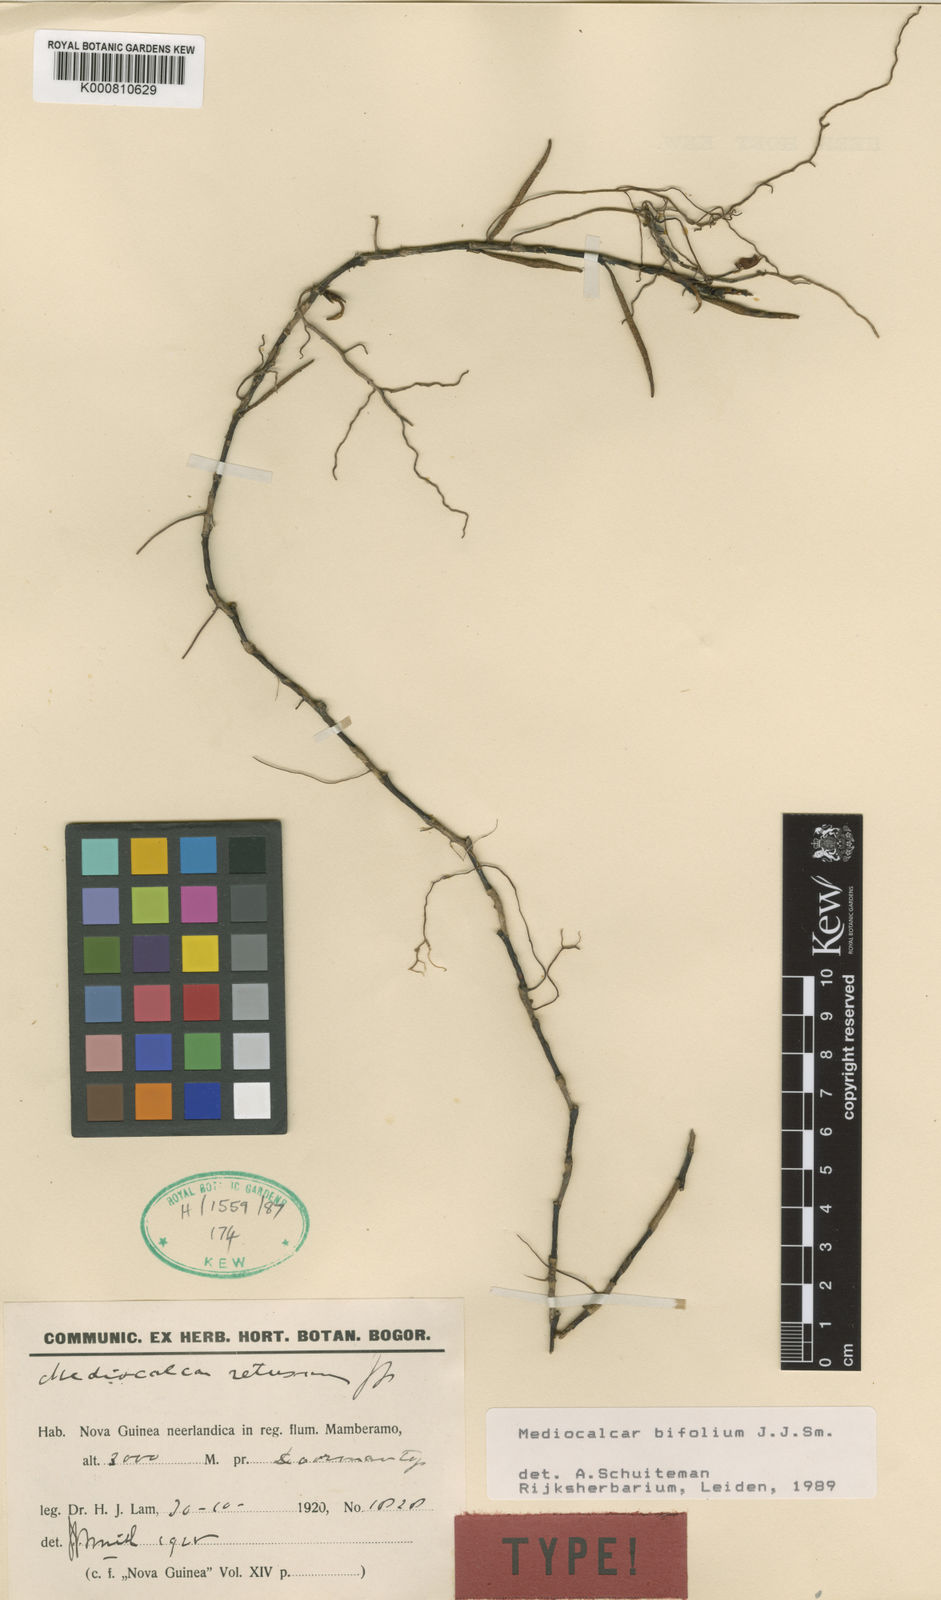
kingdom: Plantae
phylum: Tracheophyta
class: Liliopsida
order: Asparagales
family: Orchidaceae
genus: Mediocalcar
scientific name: Mediocalcar bifolium
